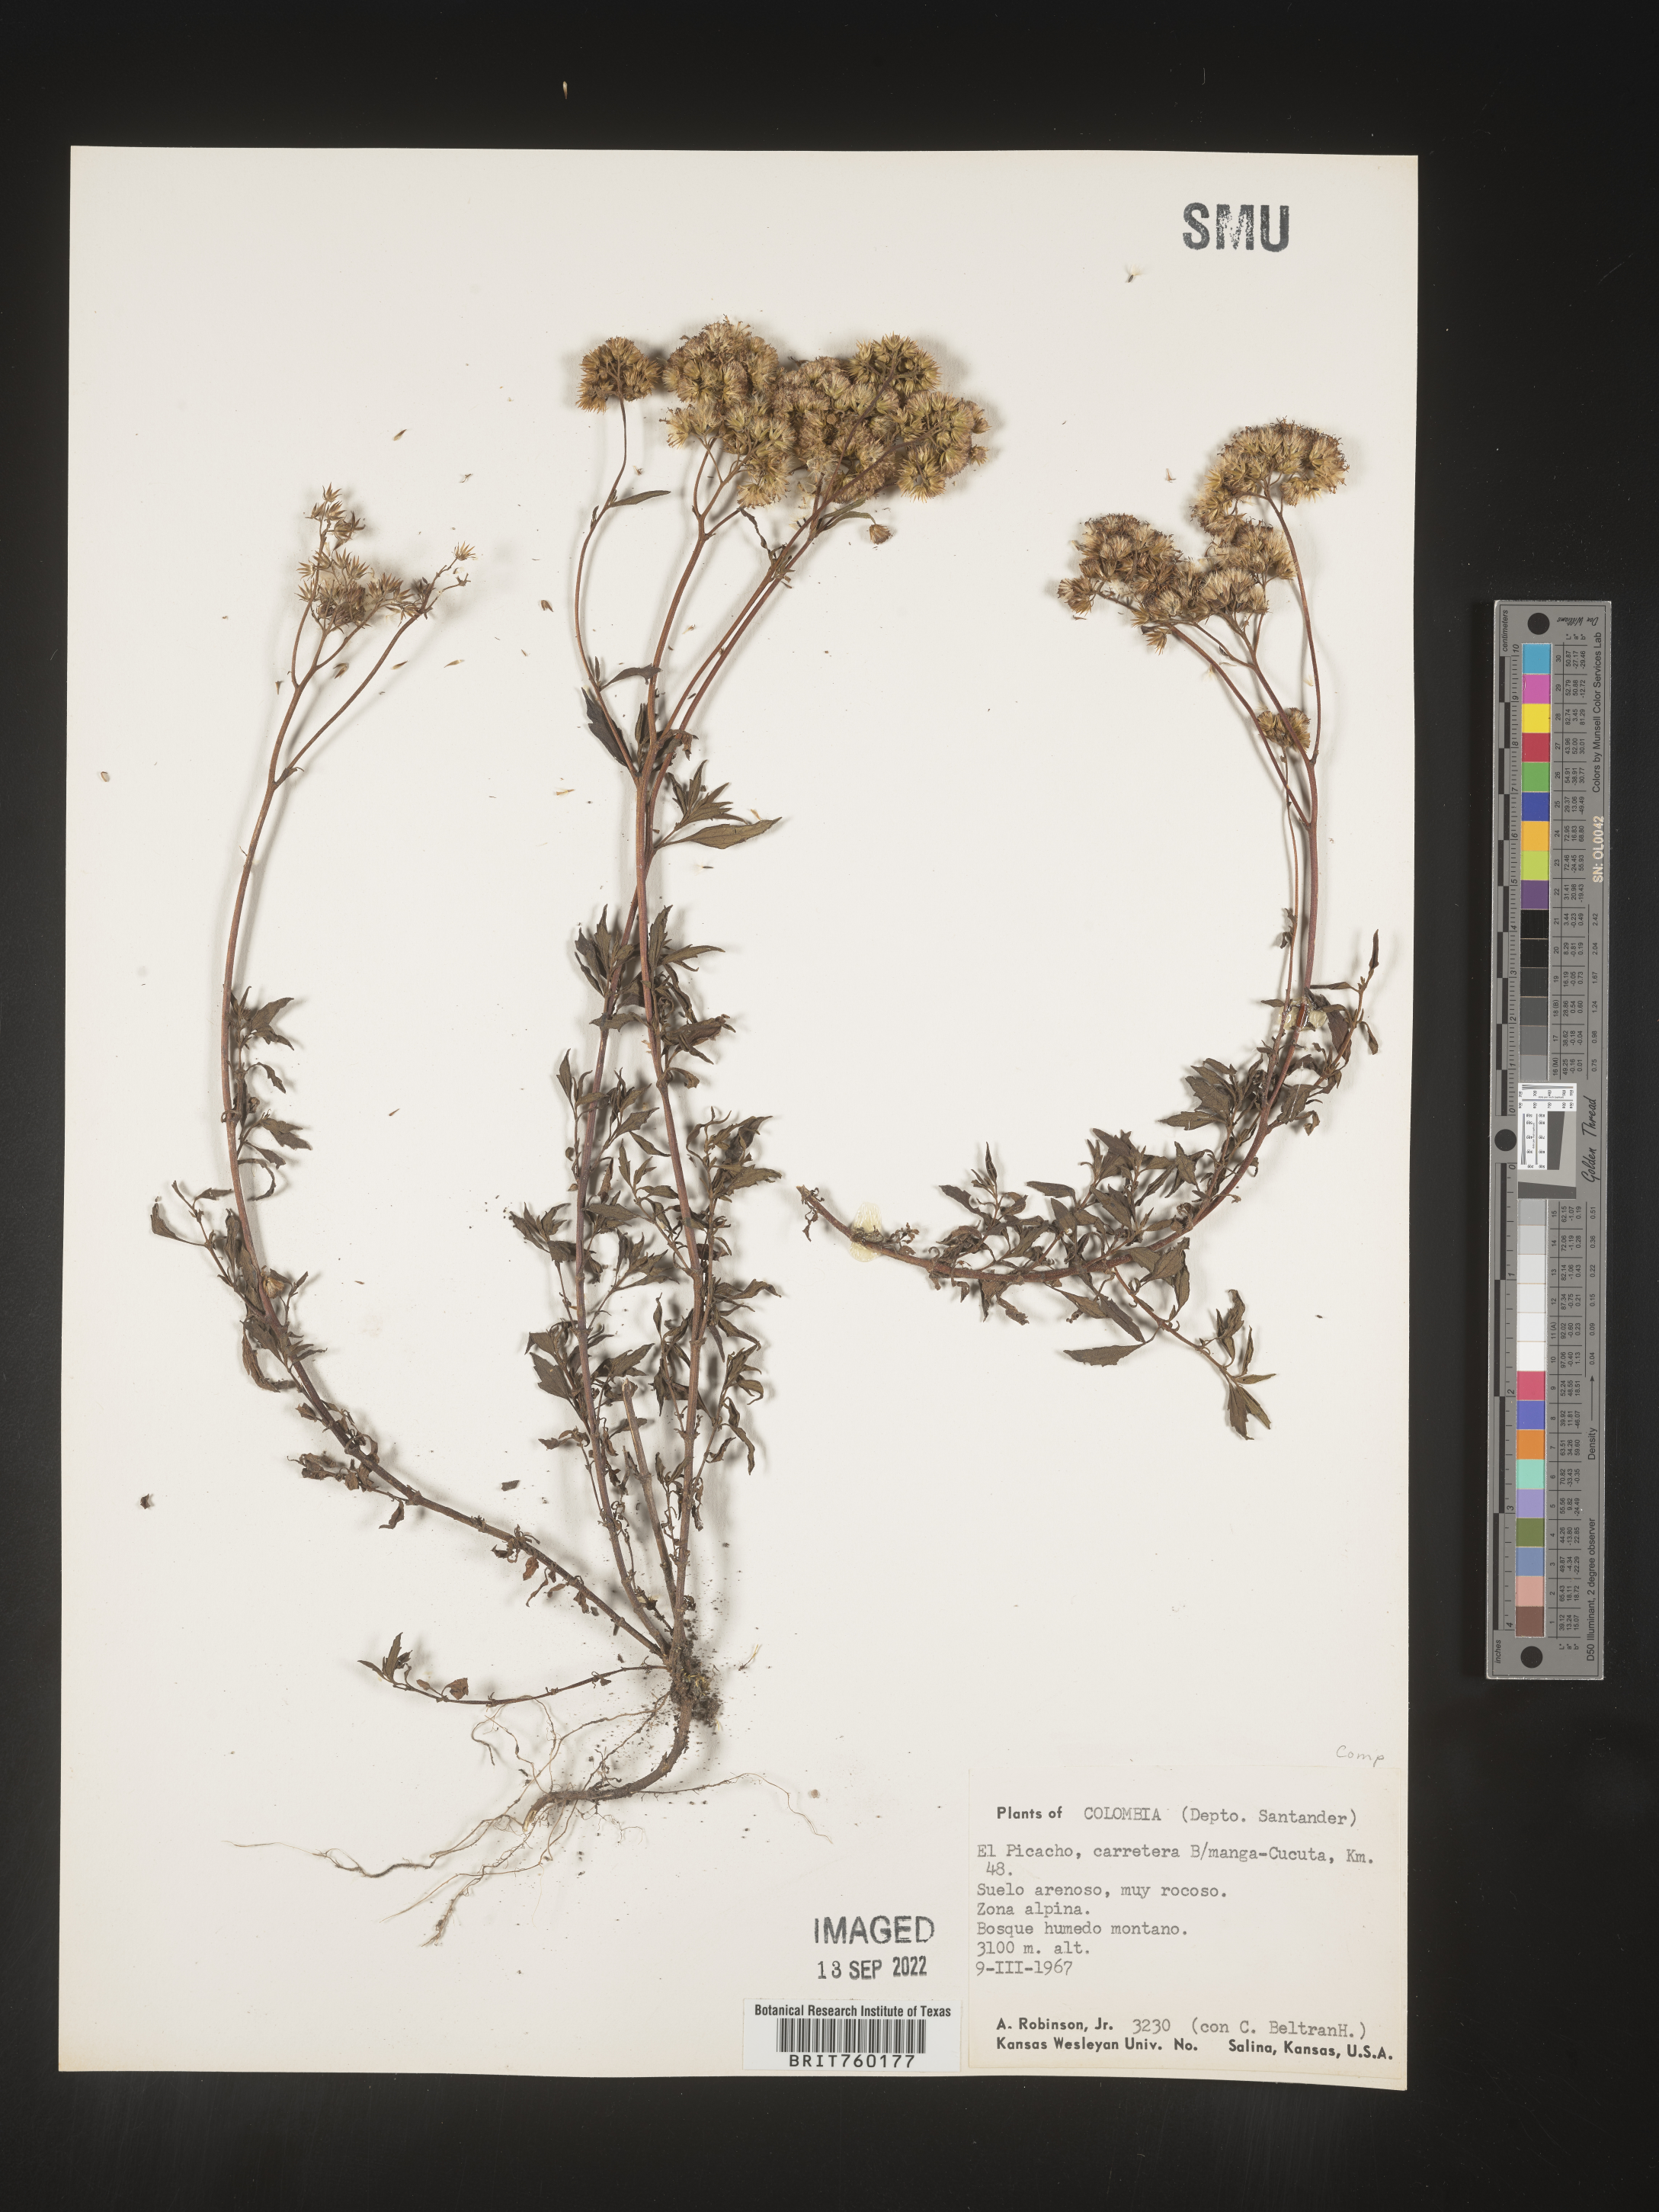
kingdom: Plantae
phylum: Tracheophyta
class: Magnoliopsida
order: Asterales
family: Asteraceae
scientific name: Asteraceae
